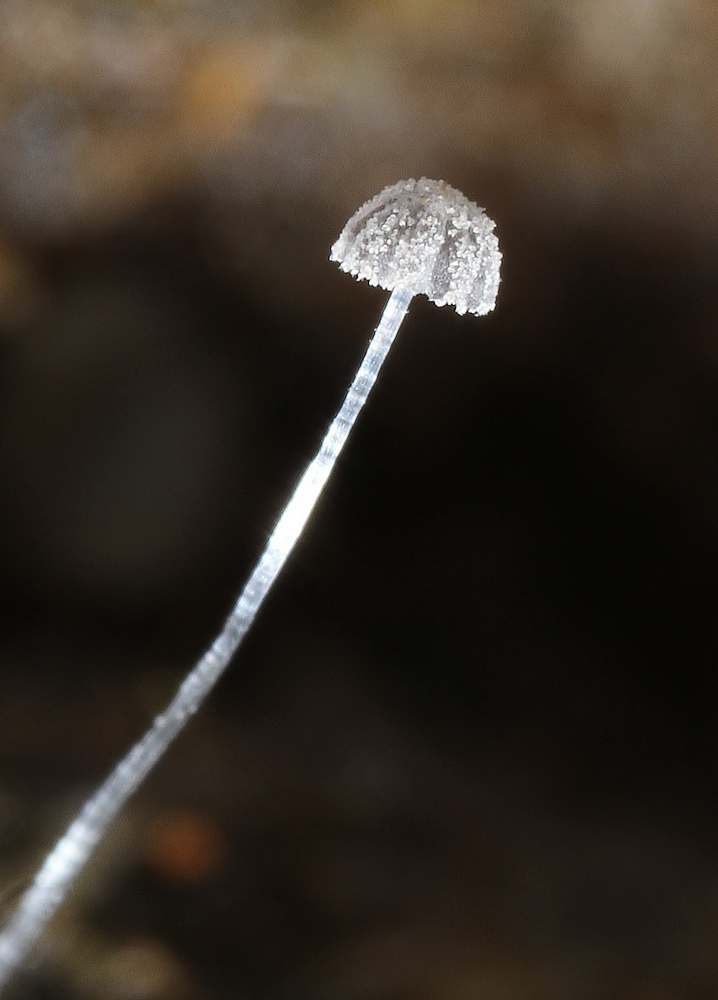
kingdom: Fungi
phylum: Basidiomycota
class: Agaricomycetes
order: Agaricales
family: Psathyrellaceae
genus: Coprinopsis
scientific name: Coprinopsis
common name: blækhat
